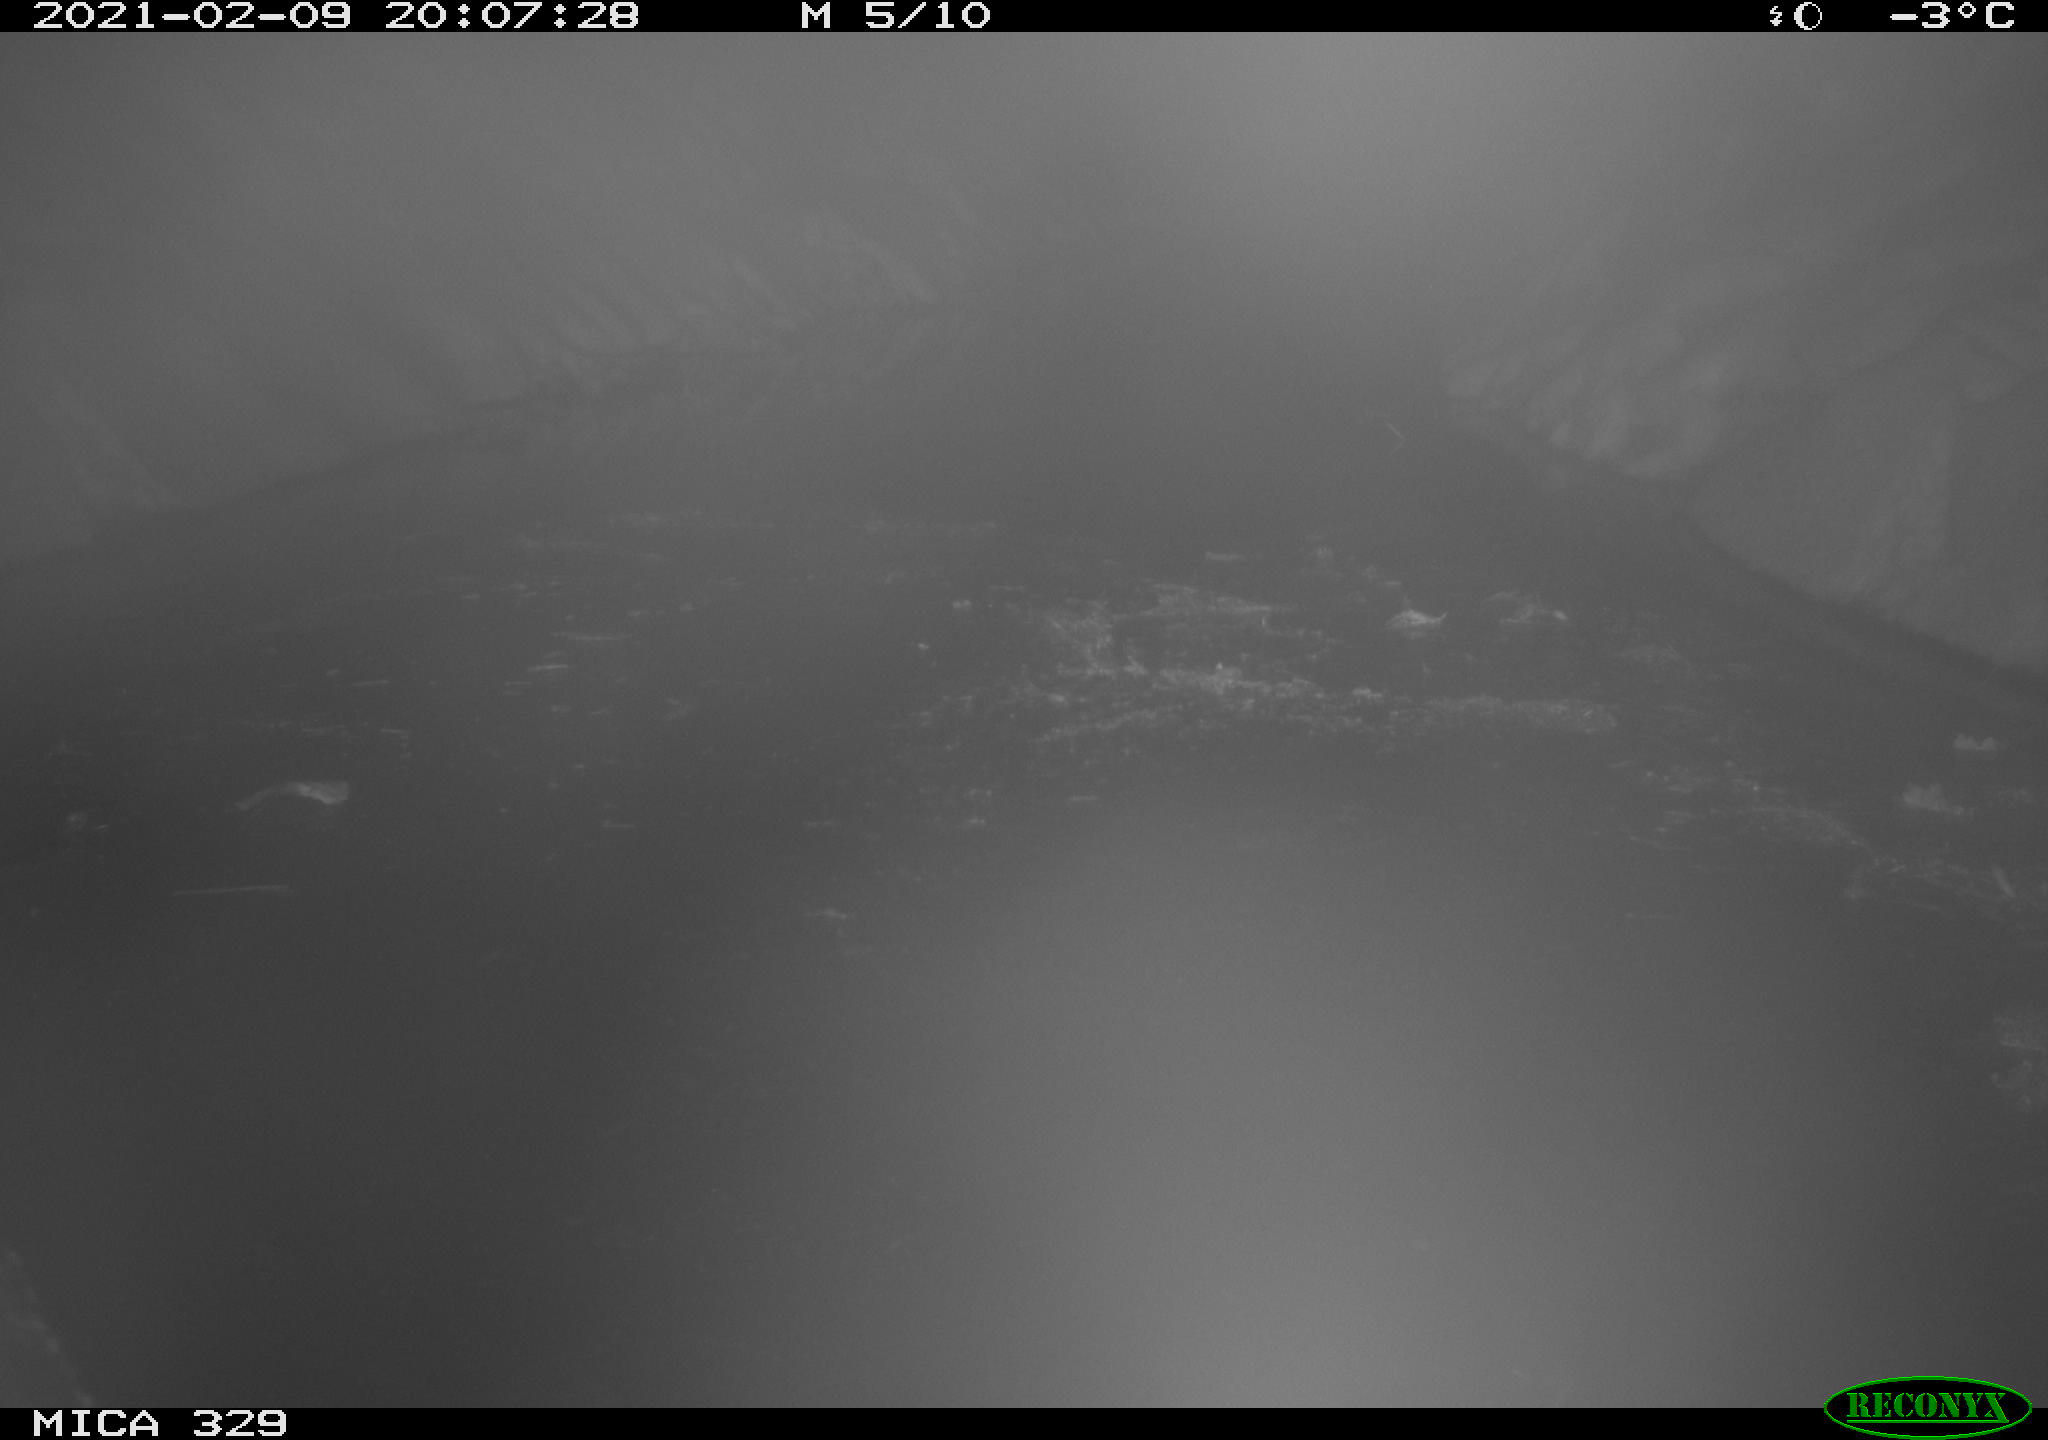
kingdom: Animalia
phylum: Chordata
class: Mammalia
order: Rodentia
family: Myocastoridae
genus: Myocastor
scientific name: Myocastor coypus
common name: Coypu
